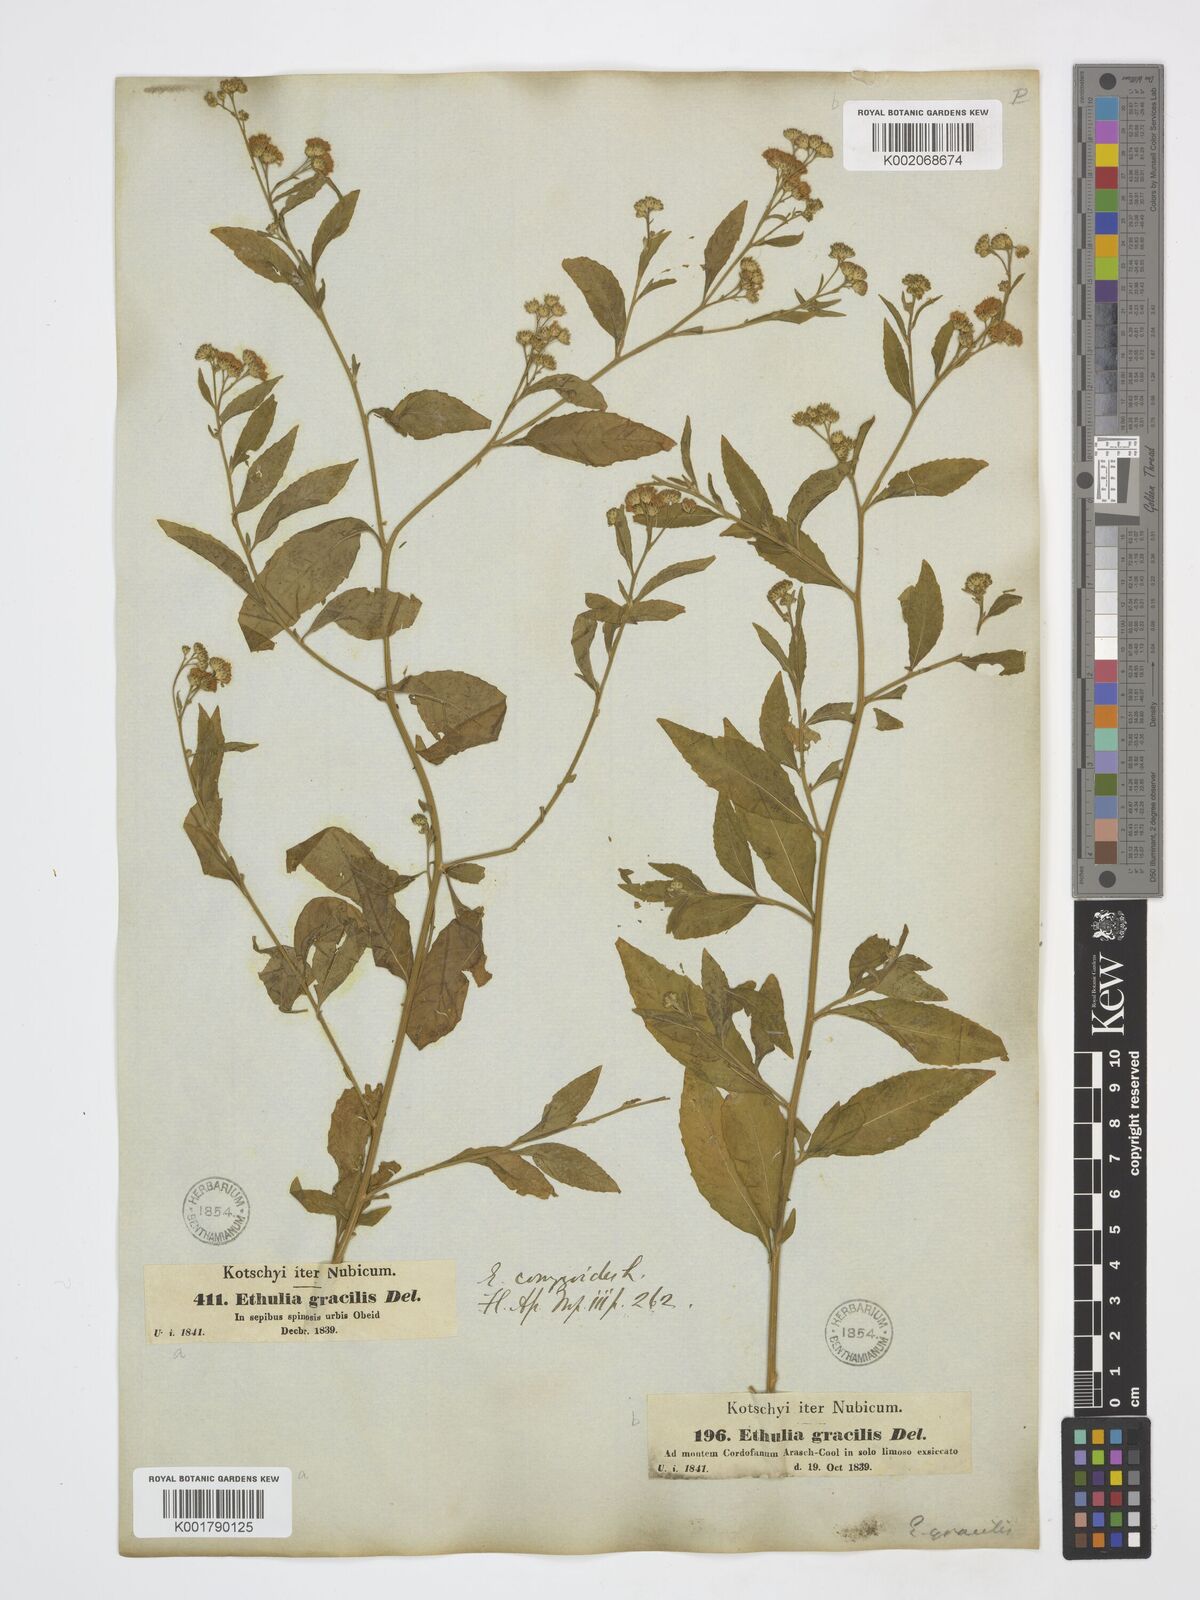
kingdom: Plantae
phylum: Tracheophyta
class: Magnoliopsida
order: Asterales
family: Asteraceae
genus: Ethulia
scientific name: Ethulia gracilis
